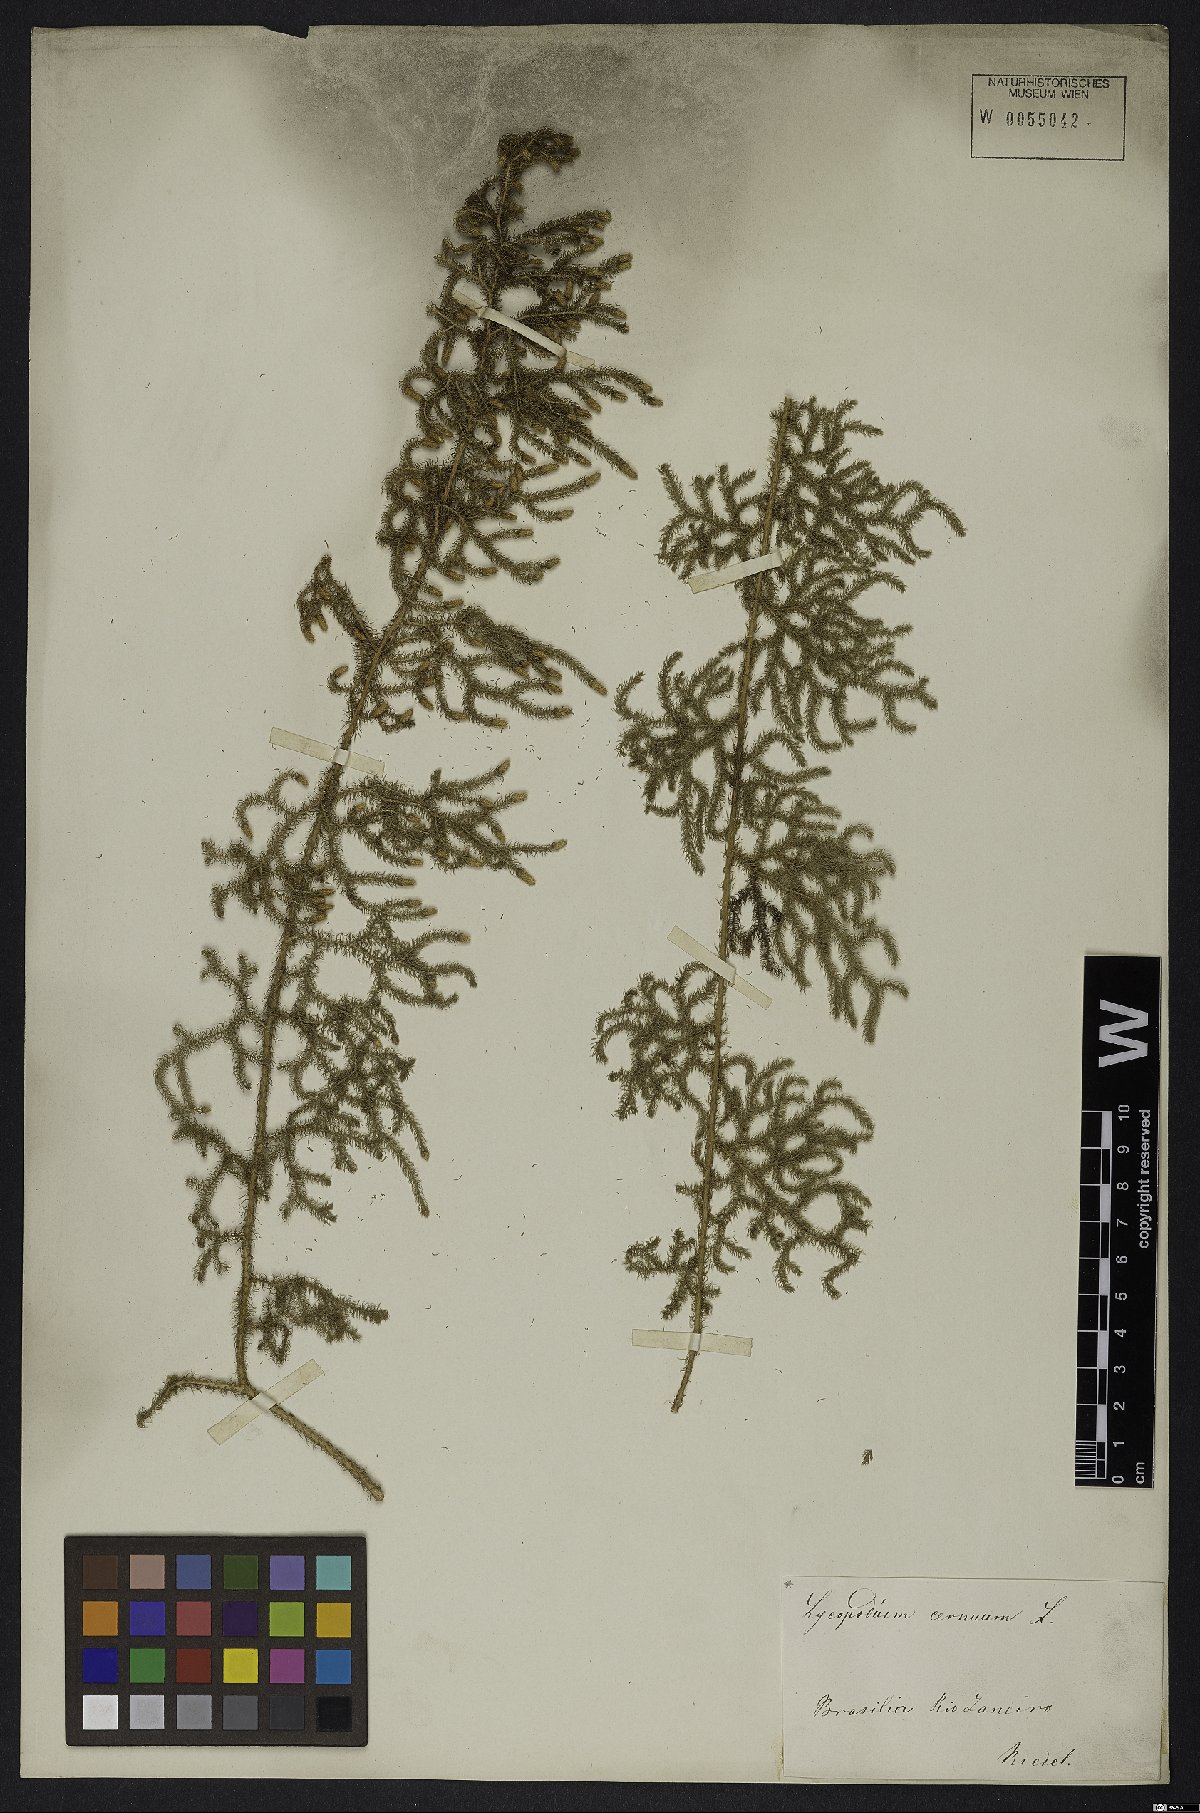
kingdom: Plantae
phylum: Tracheophyta
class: Lycopodiopsida
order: Lycopodiales
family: Lycopodiaceae
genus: Palhinhaea
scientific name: Palhinhaea cernua
